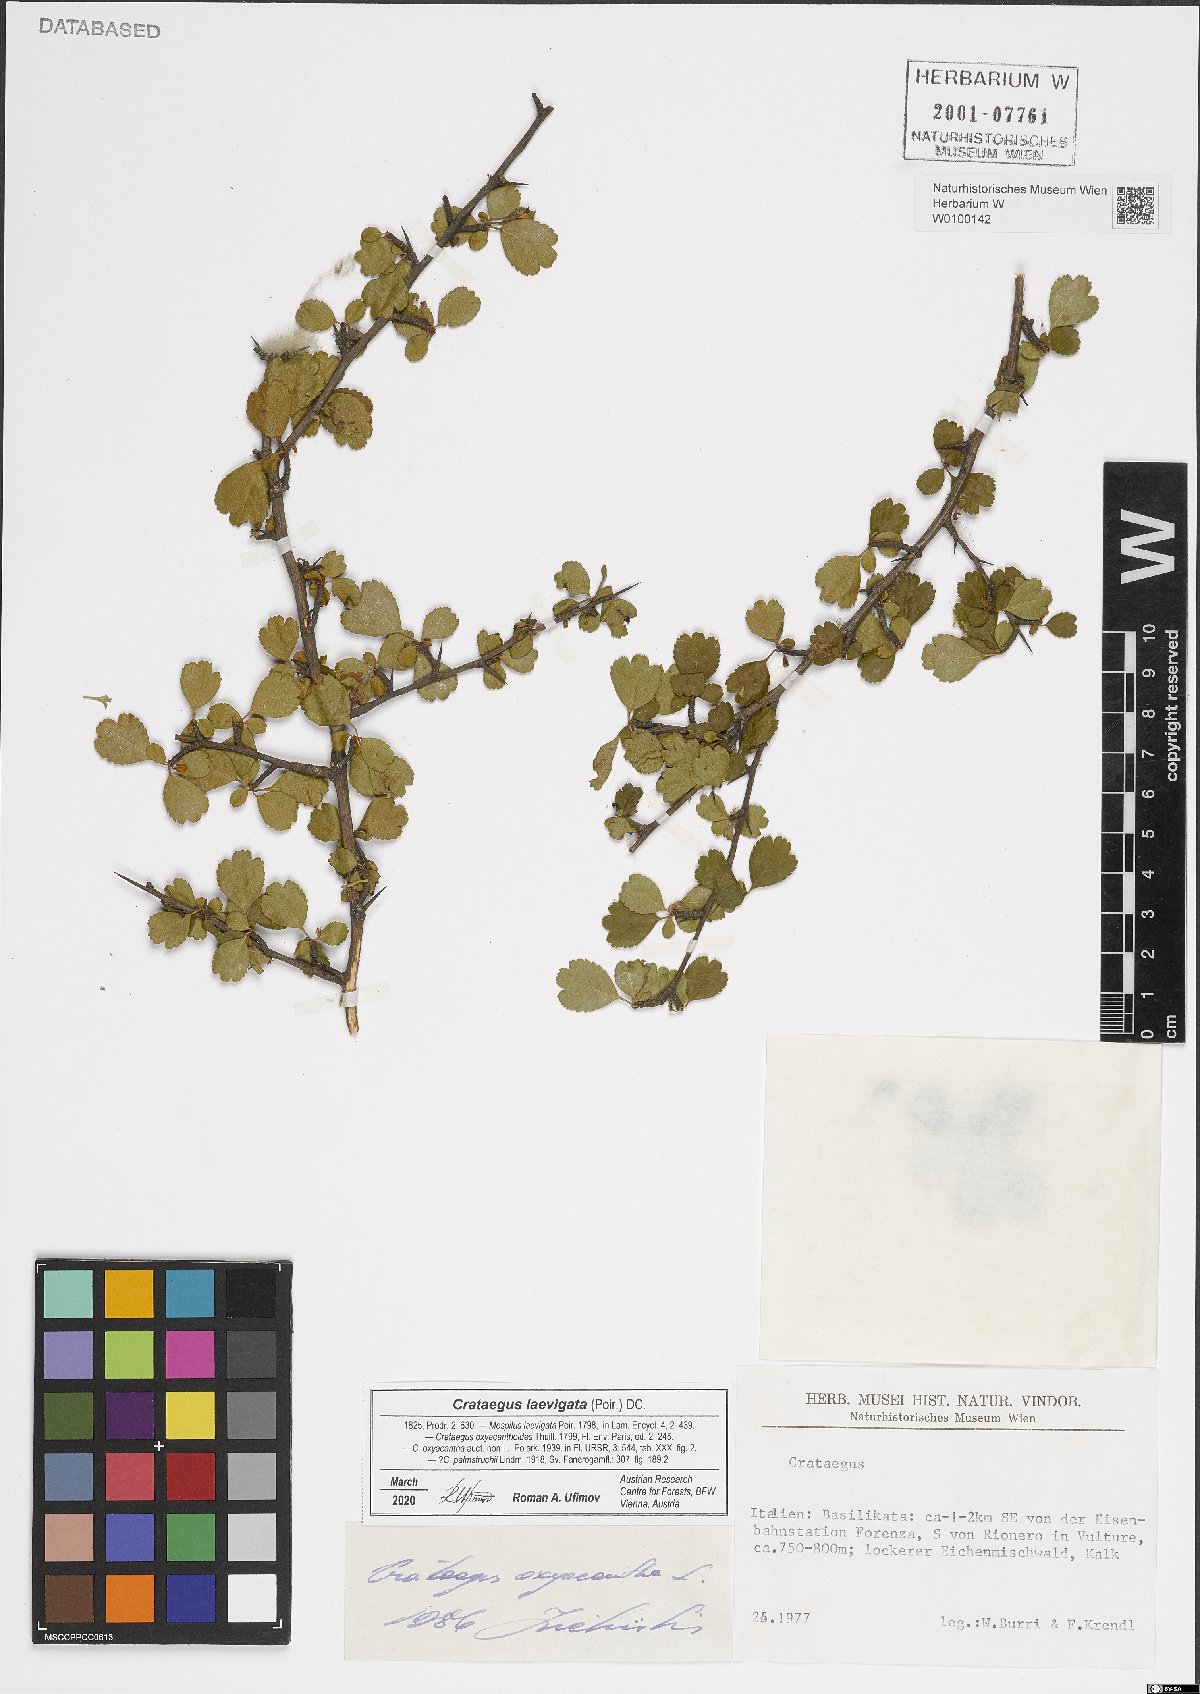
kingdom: Plantae
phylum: Tracheophyta
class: Magnoliopsida
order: Rosales
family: Rosaceae
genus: Crataegus
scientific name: Crataegus laevigata
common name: Midland hawthorn
